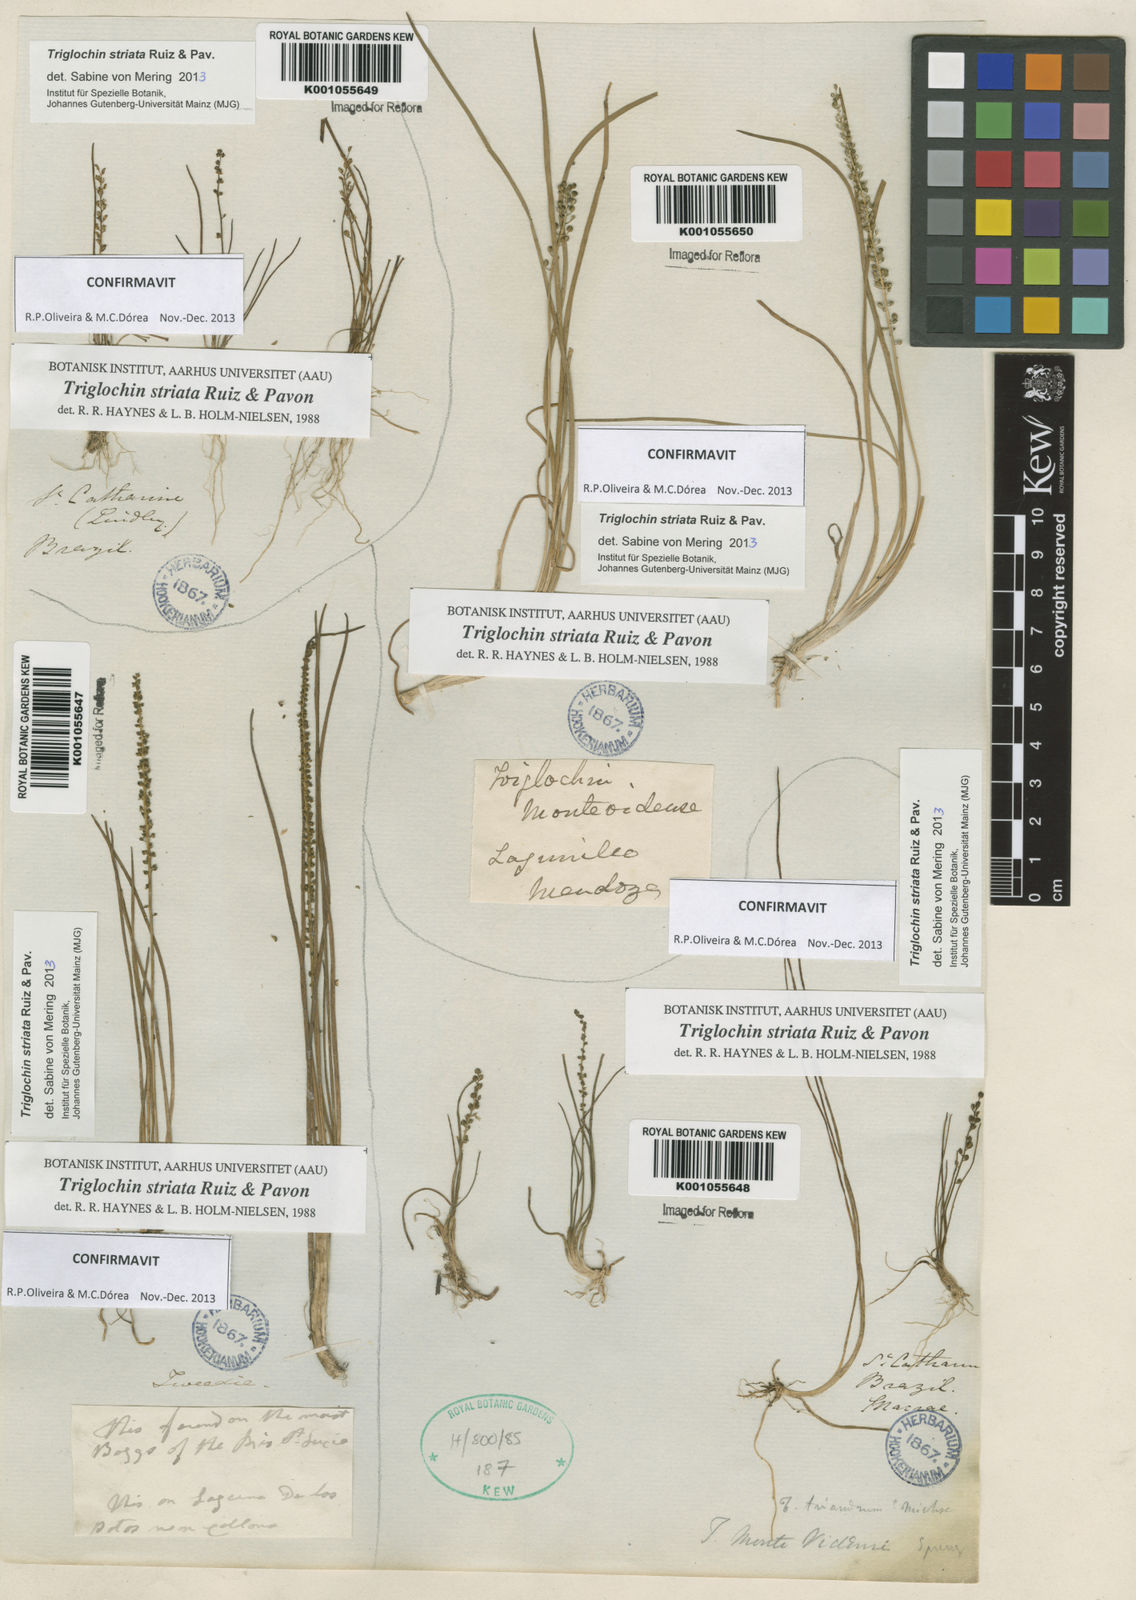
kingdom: Plantae
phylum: Tracheophyta
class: Liliopsida
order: Alismatales
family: Juncaginaceae
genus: Triglochin
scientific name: Triglochin striata
